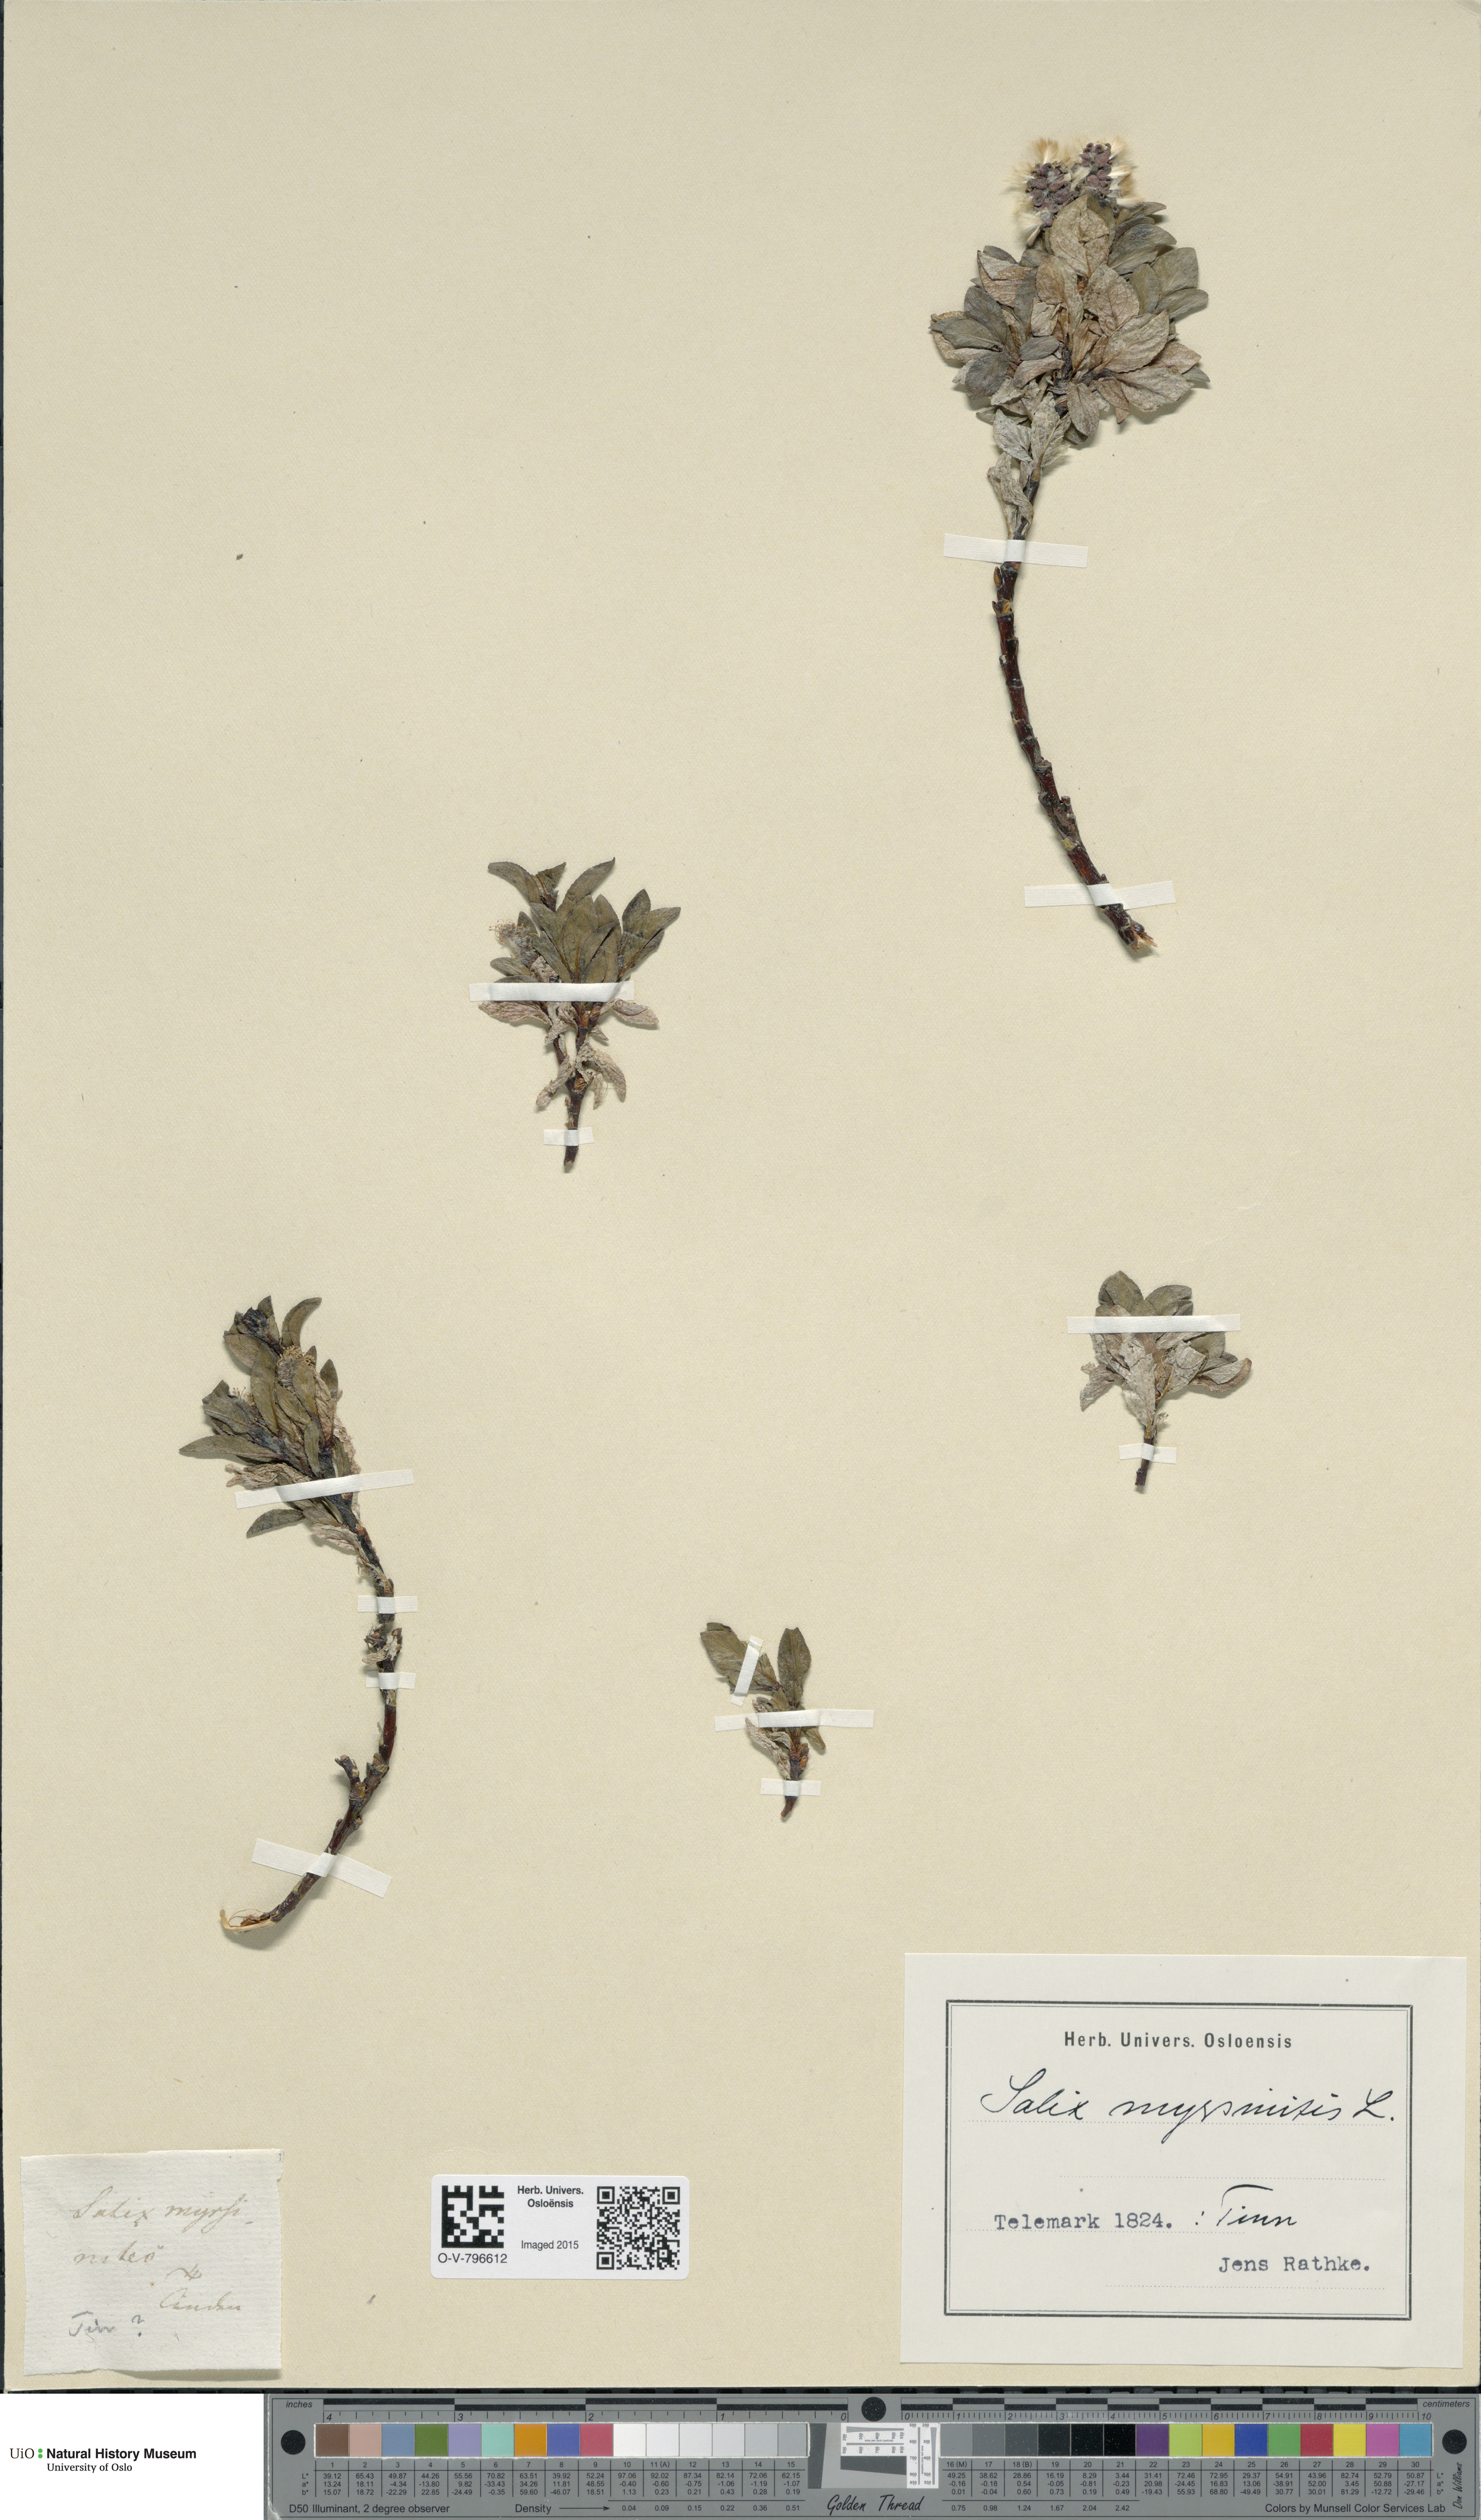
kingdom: Plantae
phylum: Tracheophyta
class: Magnoliopsida
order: Malpighiales
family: Salicaceae
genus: Salix
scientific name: Salix myrsinites
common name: Myrtle willow
